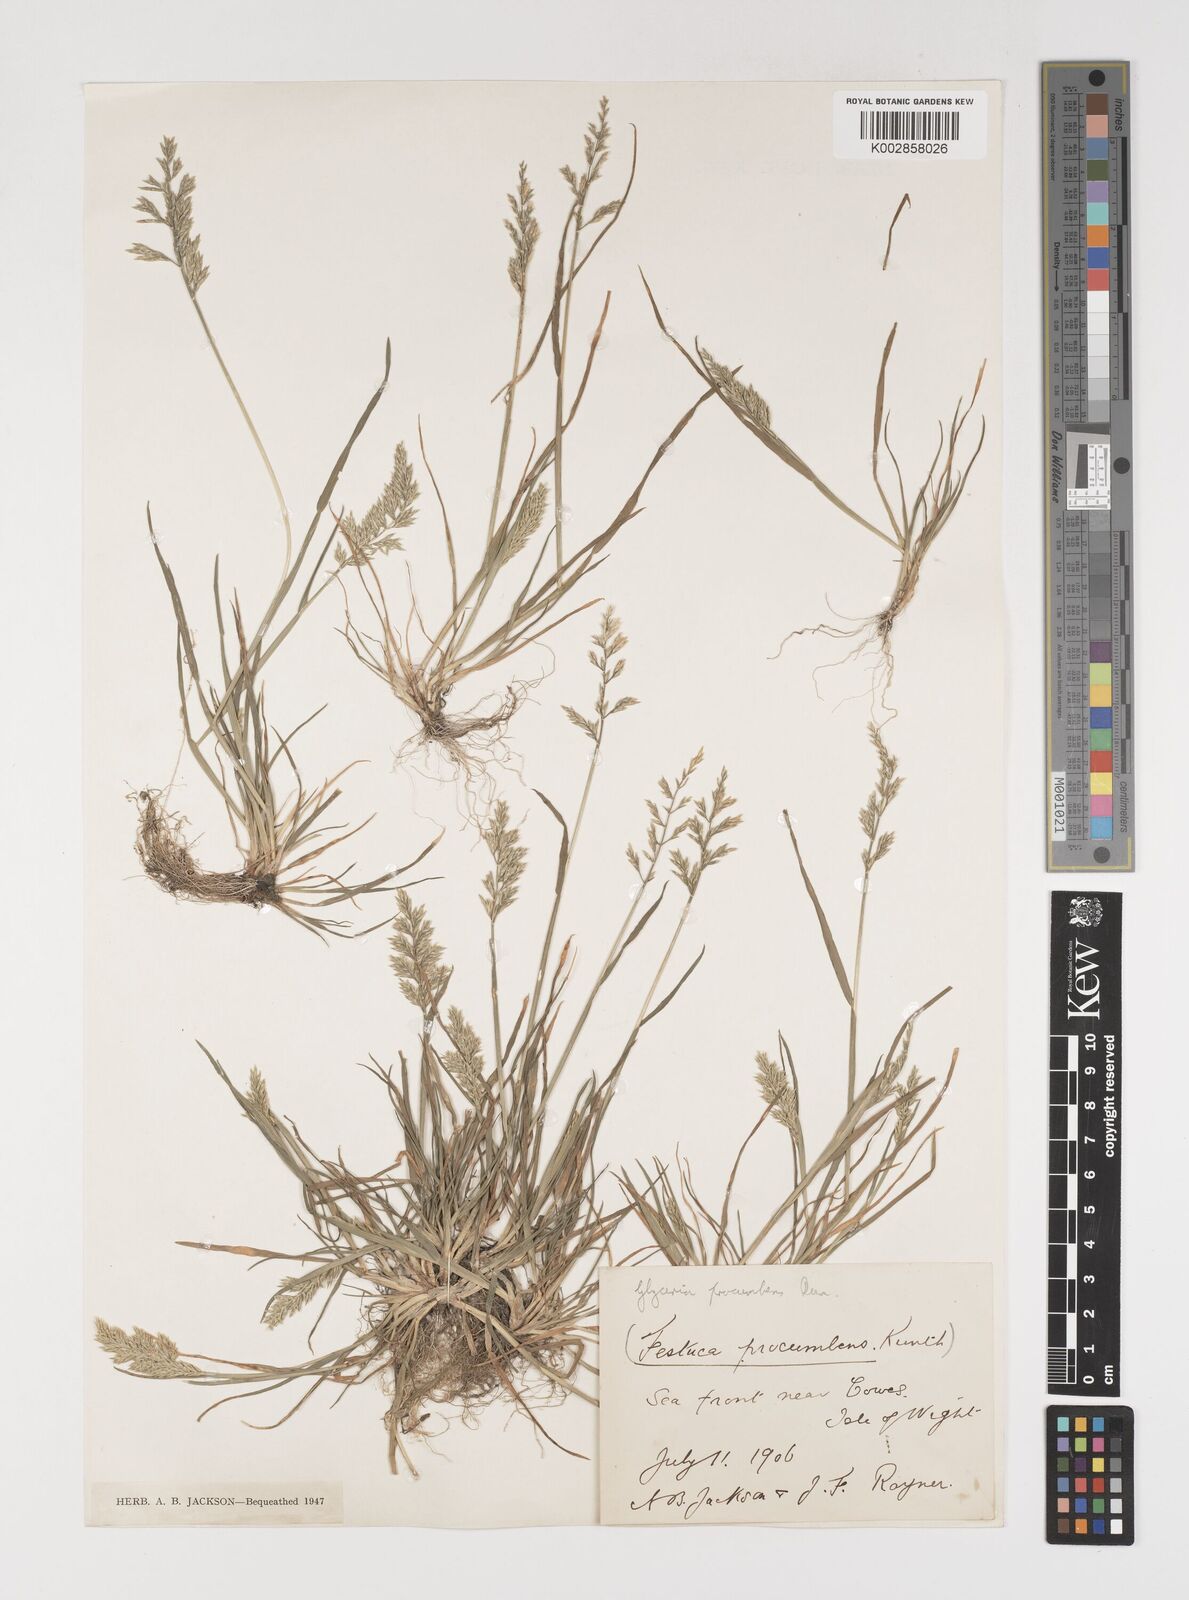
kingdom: Plantae
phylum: Tracheophyta
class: Liliopsida
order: Poales
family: Poaceae
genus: Puccinellia
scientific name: Puccinellia rupestris
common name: Stiff saltmarsh-grass
